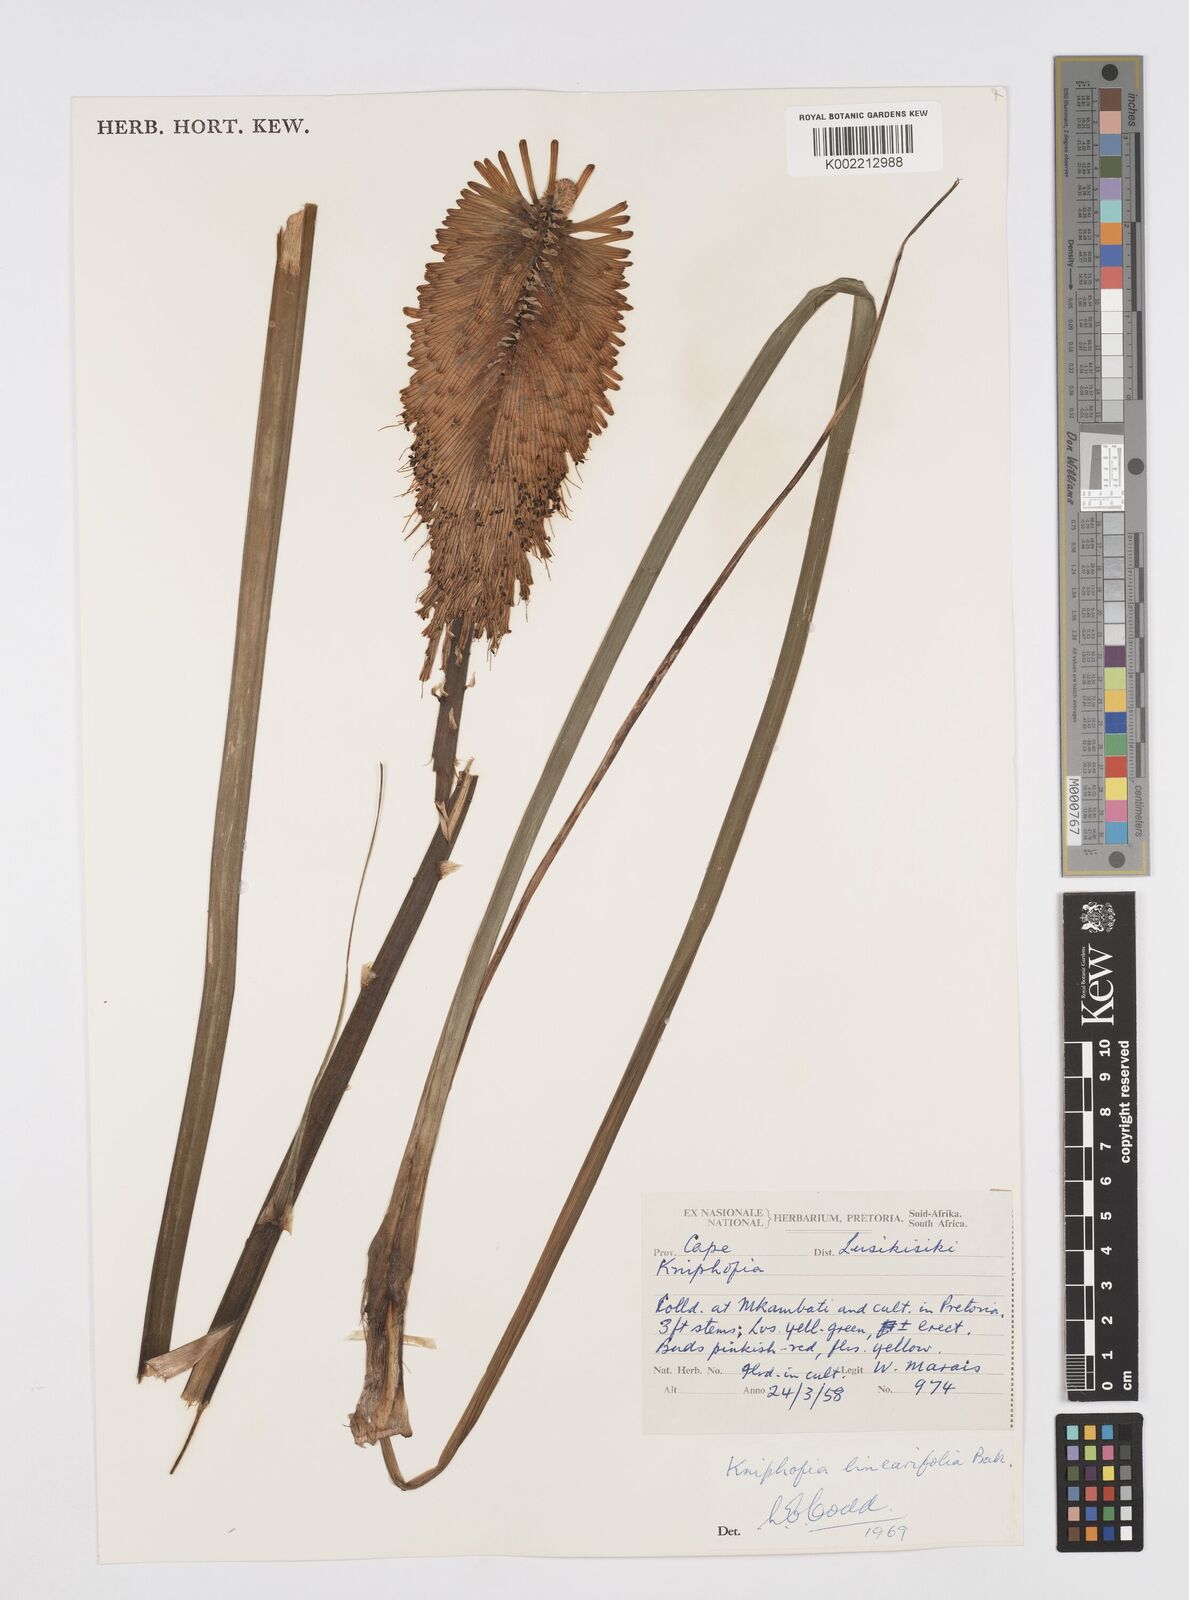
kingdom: Plantae
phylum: Tracheophyta
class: Liliopsida
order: Asparagales
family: Asphodelaceae
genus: Kniphofia
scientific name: Kniphofia linearifolia
